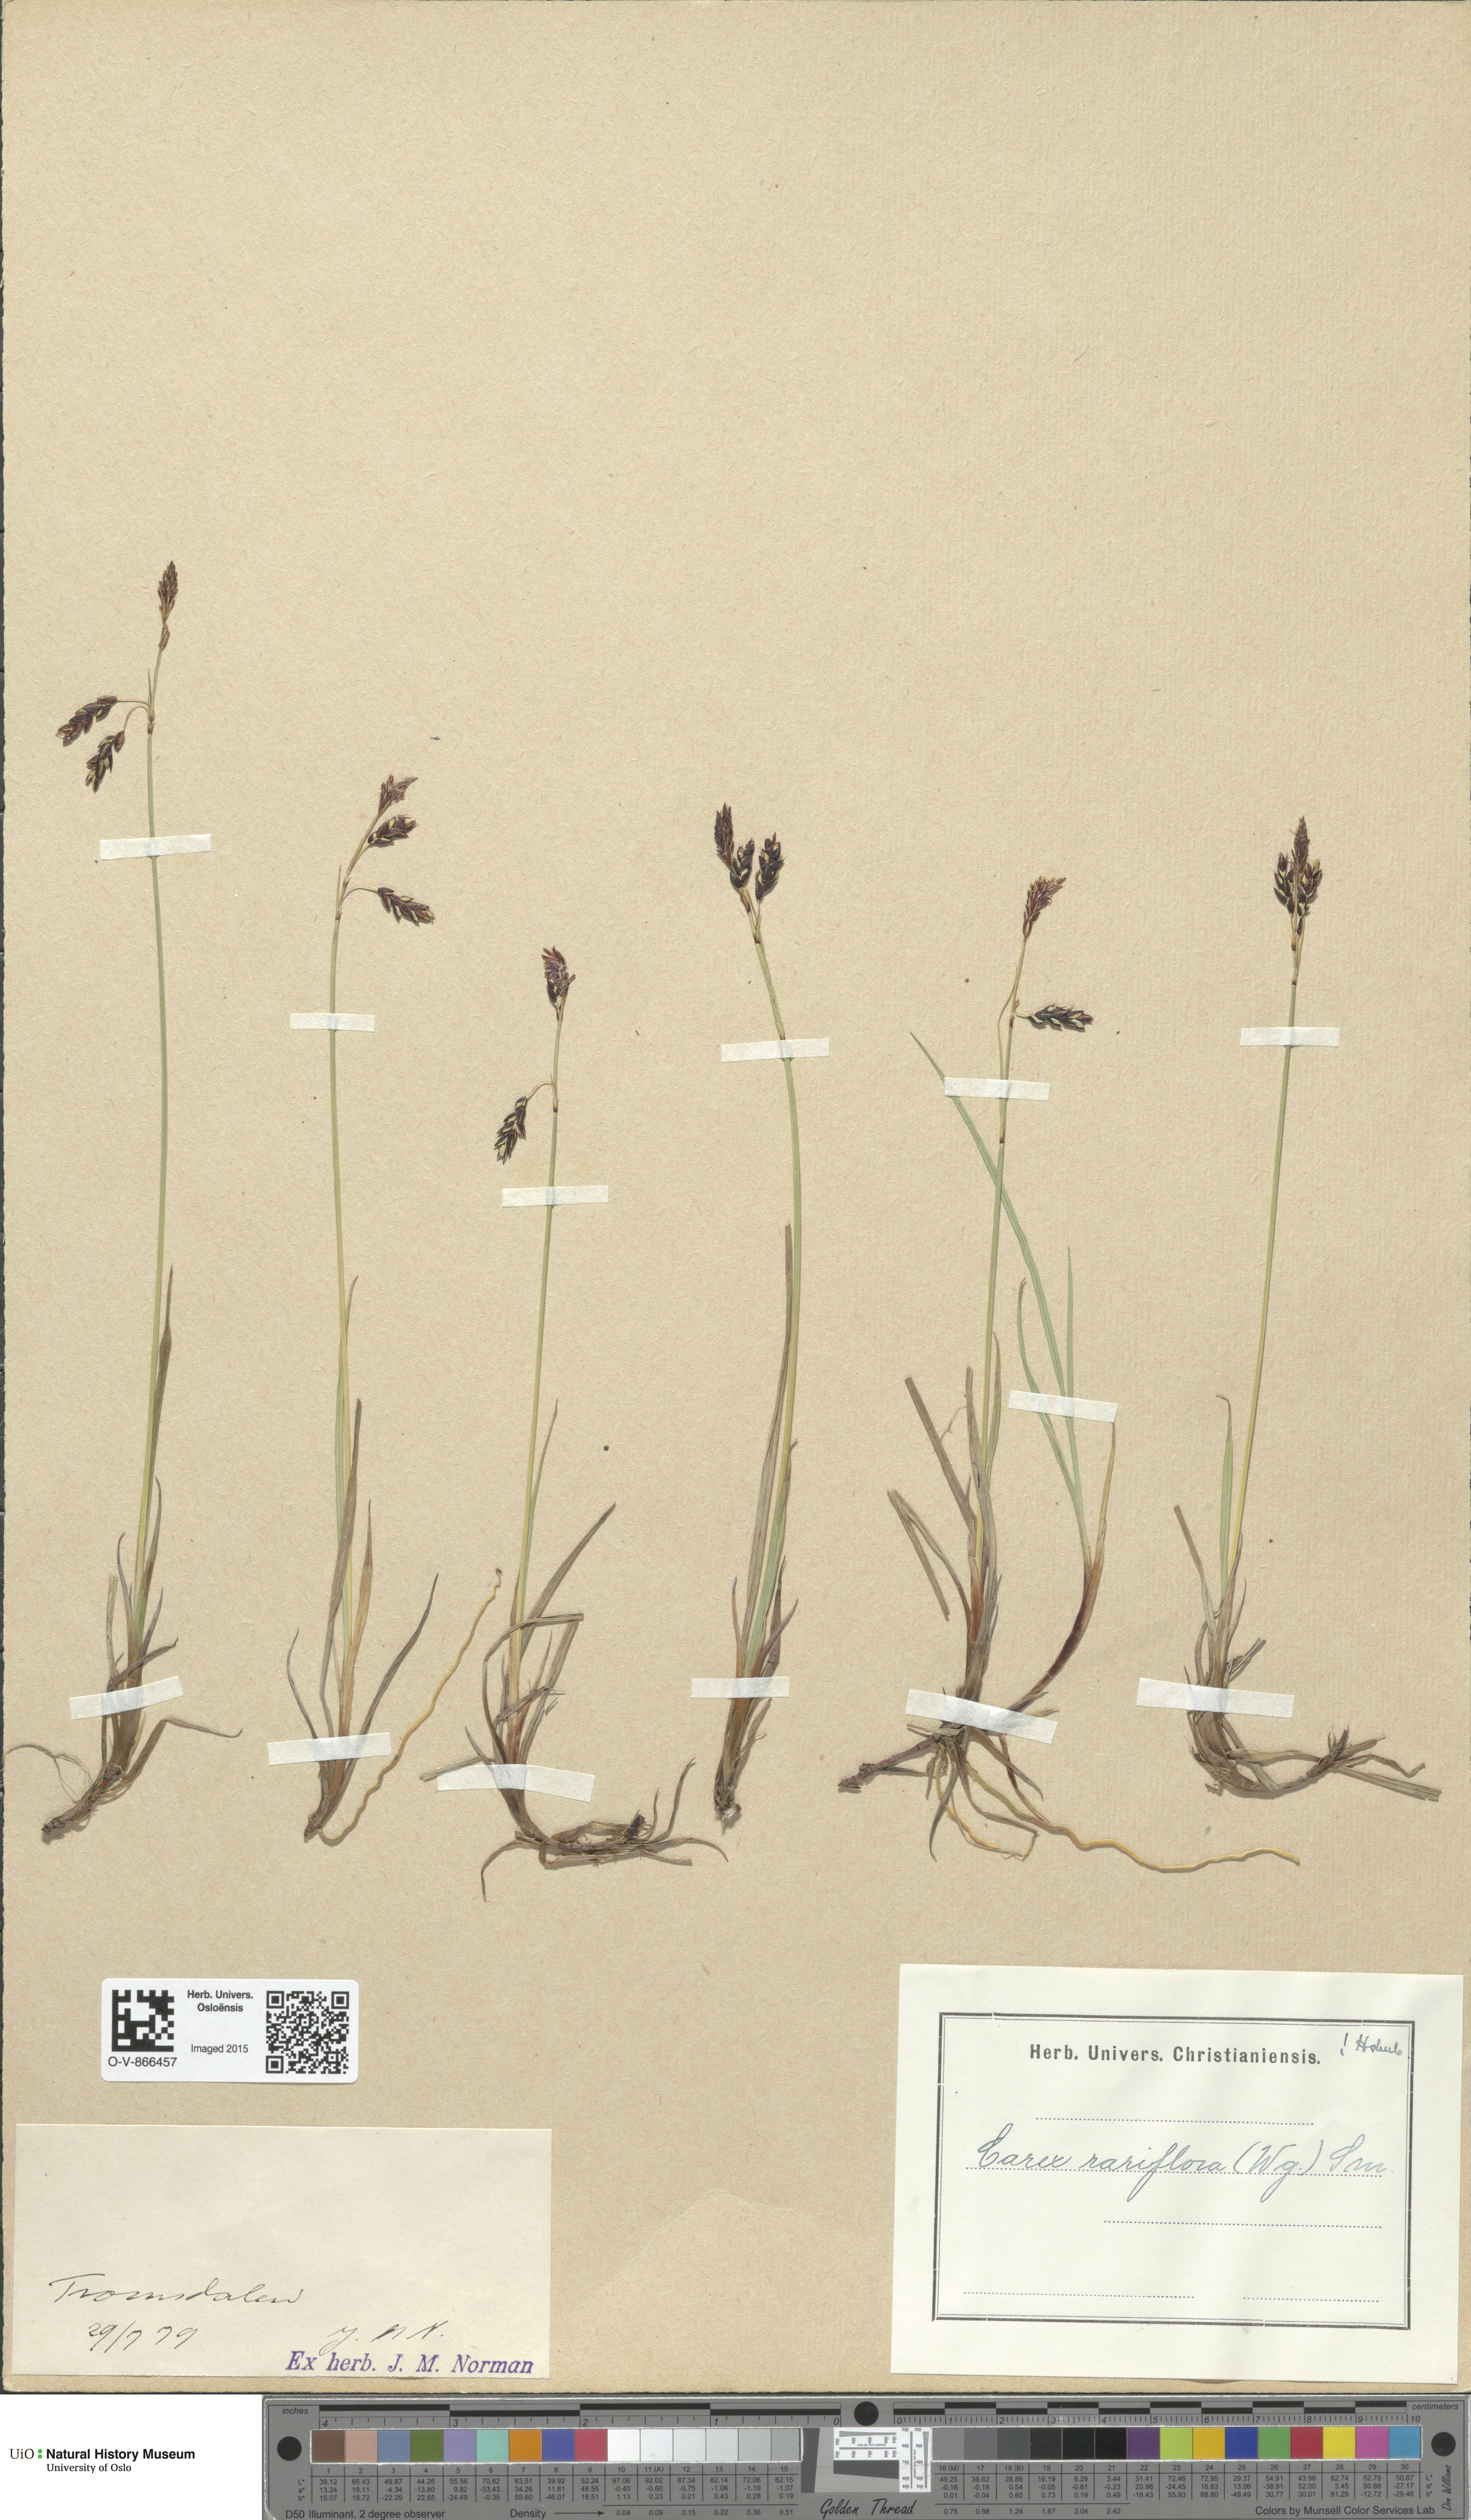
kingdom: Plantae
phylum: Tracheophyta
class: Liliopsida
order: Poales
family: Cyperaceae
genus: Carex
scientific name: Carex rariflora
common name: Loose-flowered alpine sedge
